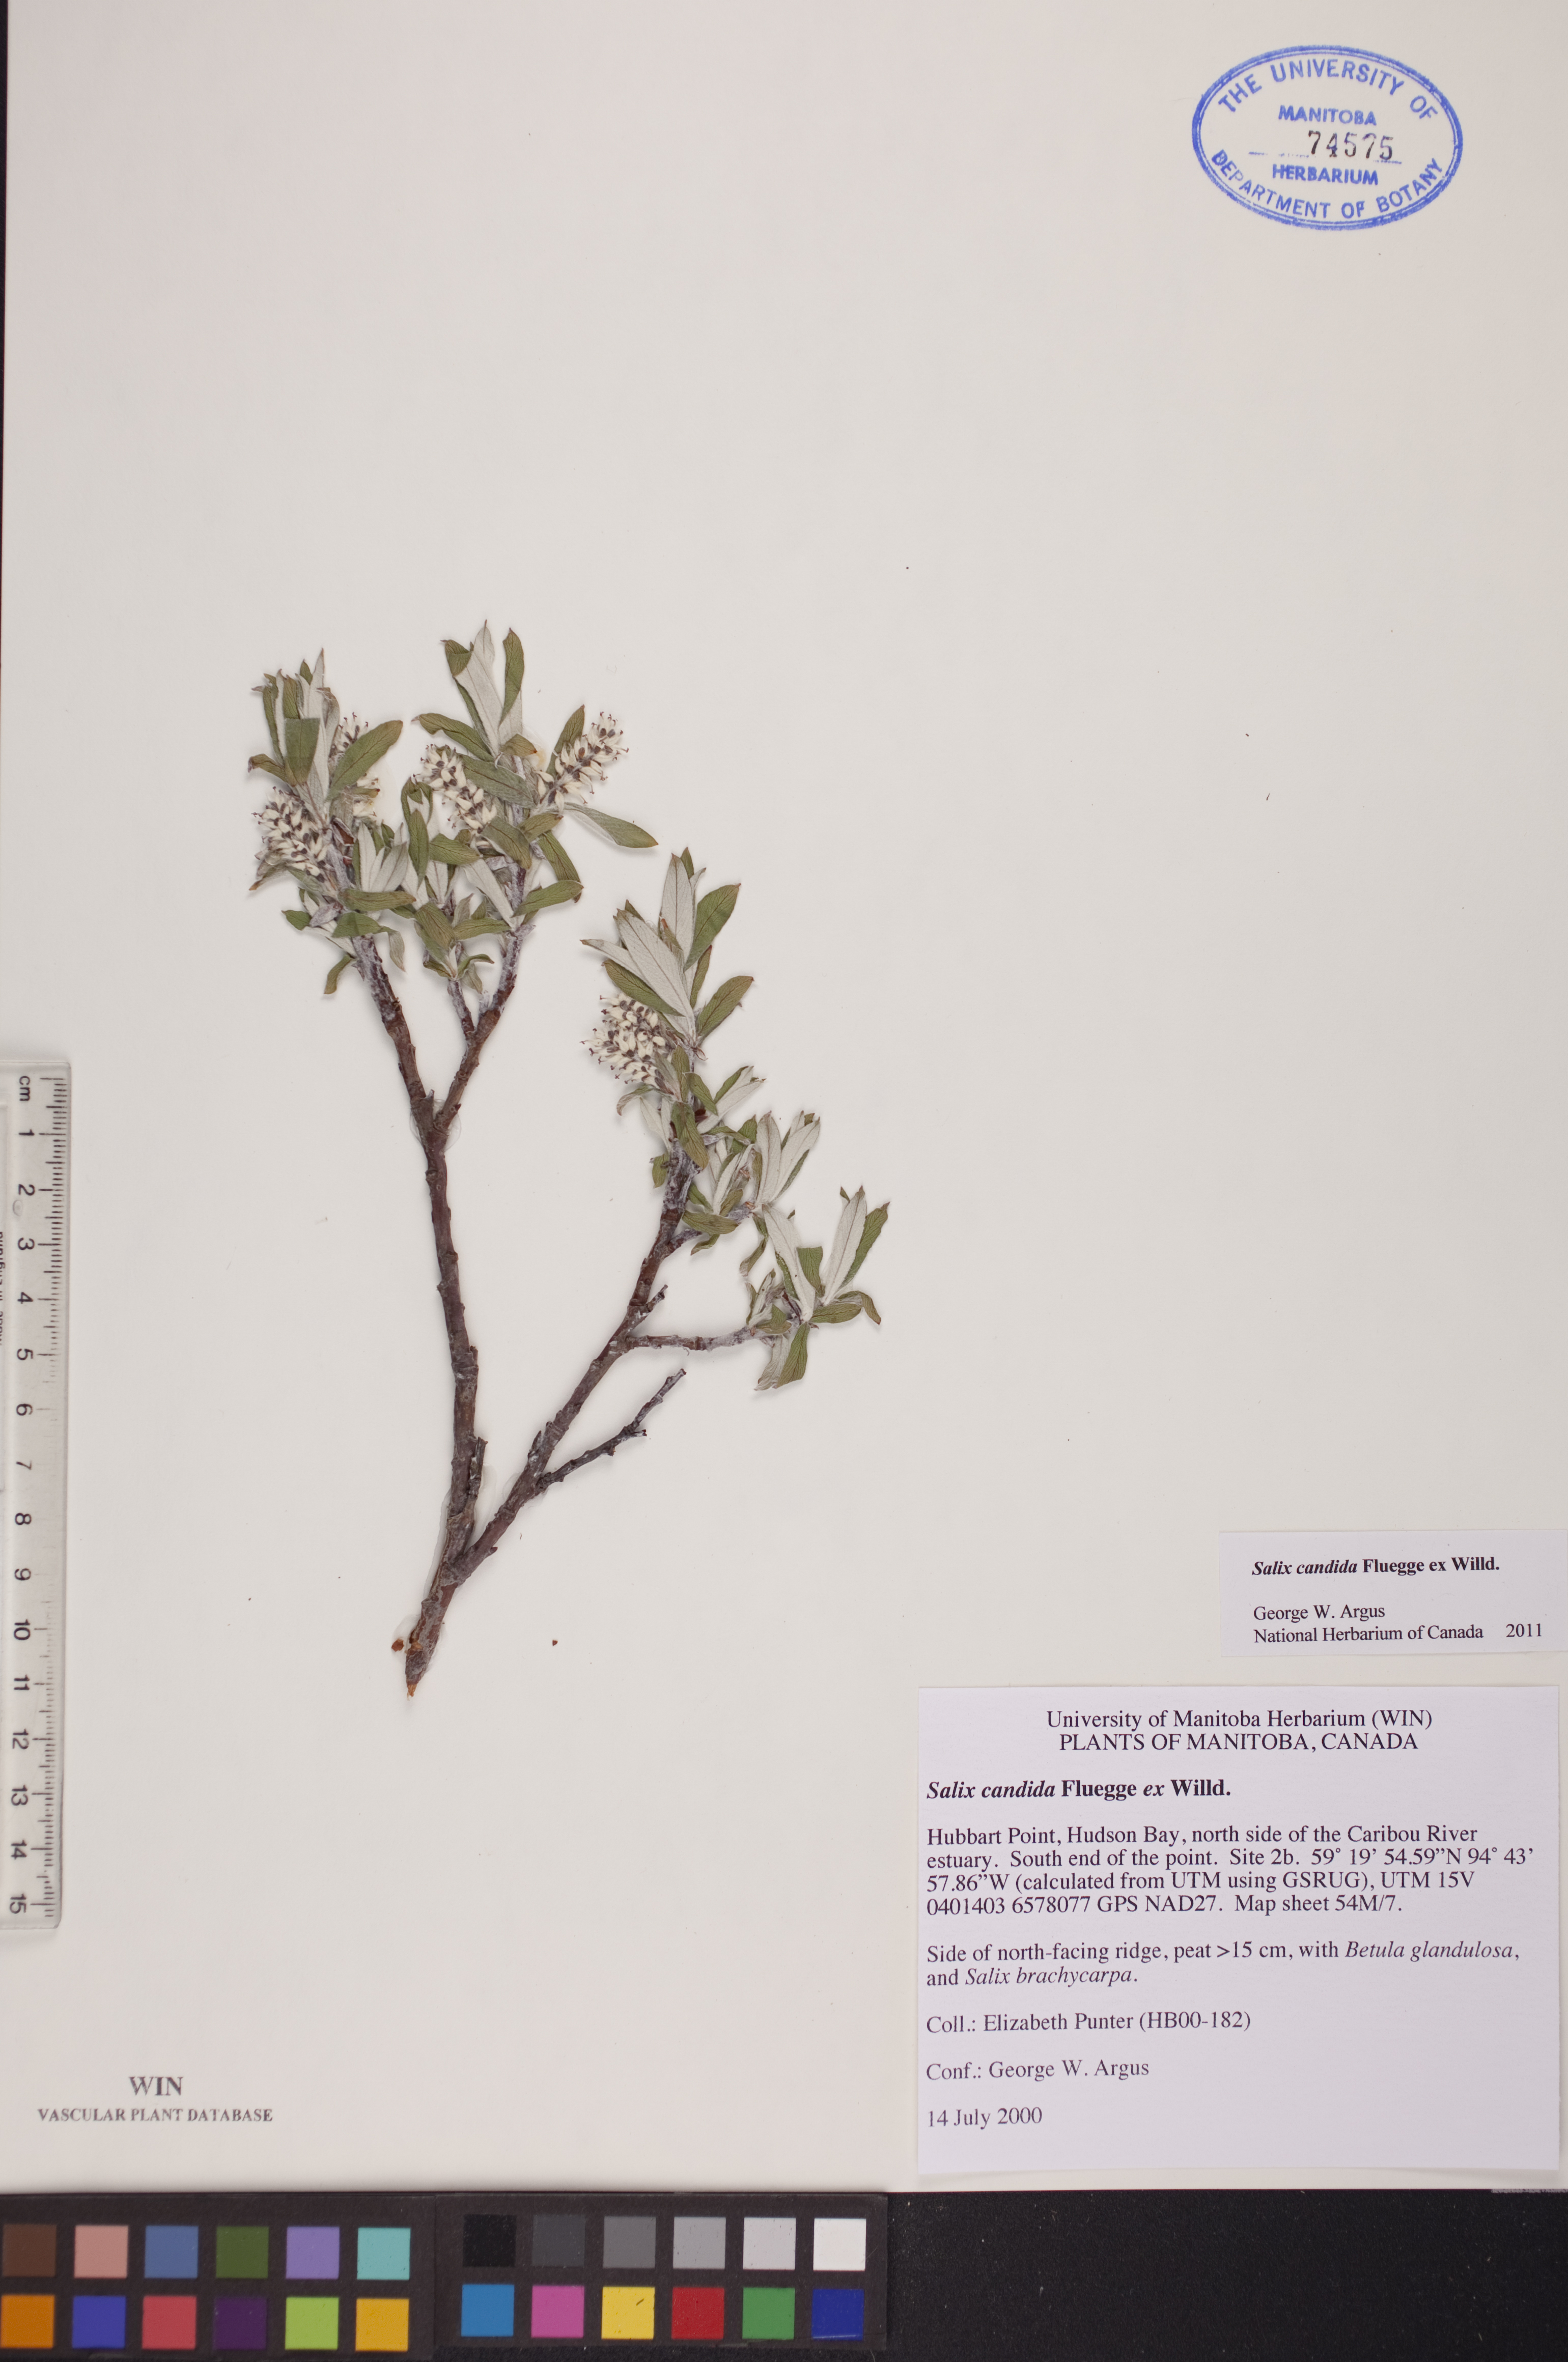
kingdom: Plantae
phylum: Tracheophyta
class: Magnoliopsida
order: Malpighiales
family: Salicaceae
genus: Salix
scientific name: Salix candida
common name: Hoary willow
